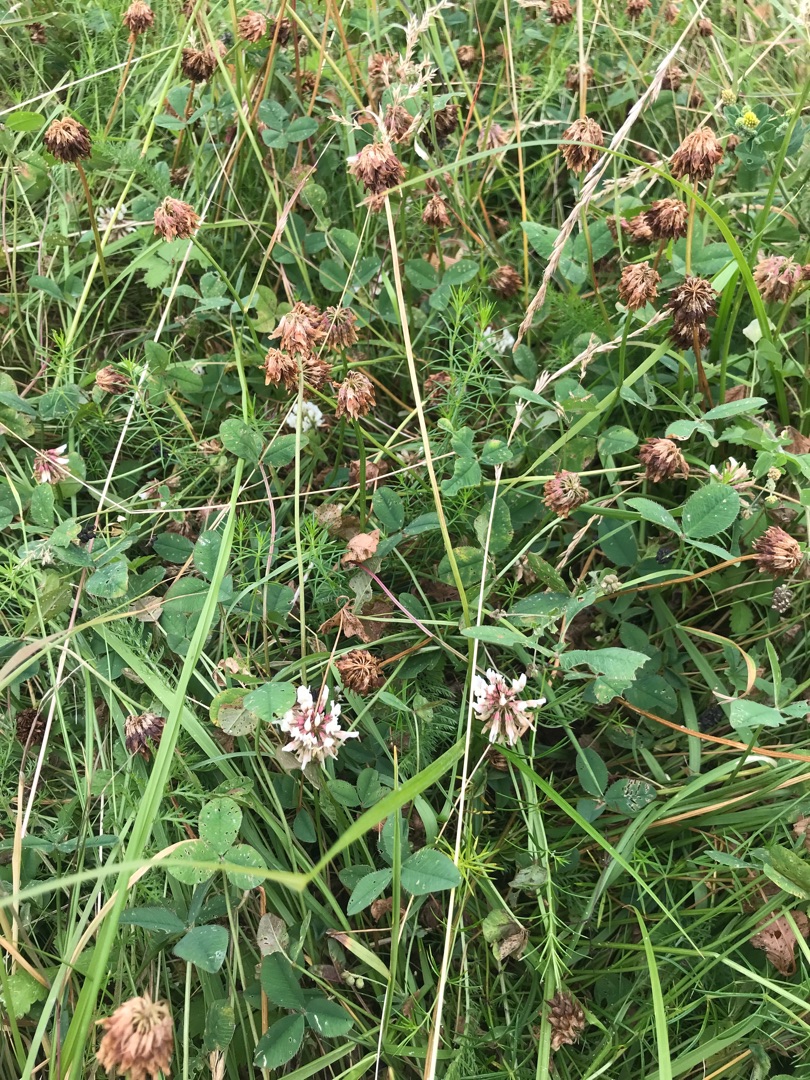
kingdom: Plantae
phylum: Tracheophyta
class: Magnoliopsida
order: Fabales
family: Fabaceae
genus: Trifolium
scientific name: Trifolium repens
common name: Hvid-kløver
